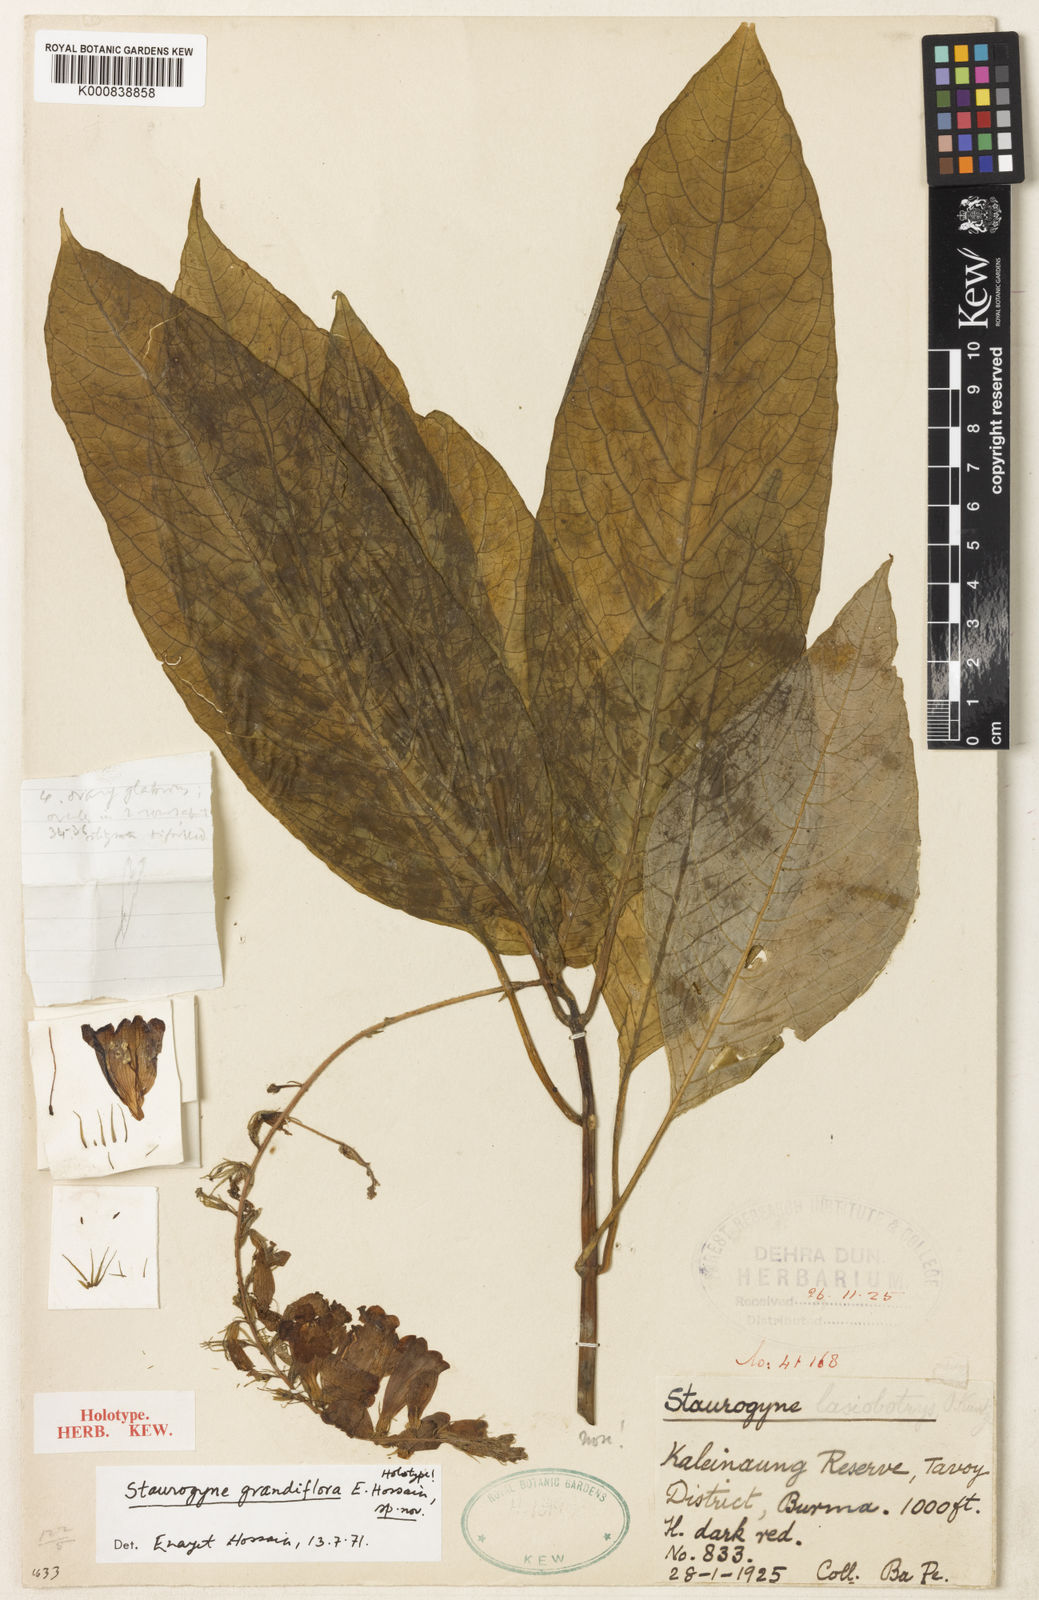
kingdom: Plantae
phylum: Tracheophyta
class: Magnoliopsida
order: Lamiales
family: Acanthaceae
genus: Staurogyne
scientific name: Staurogyne grandiflora
